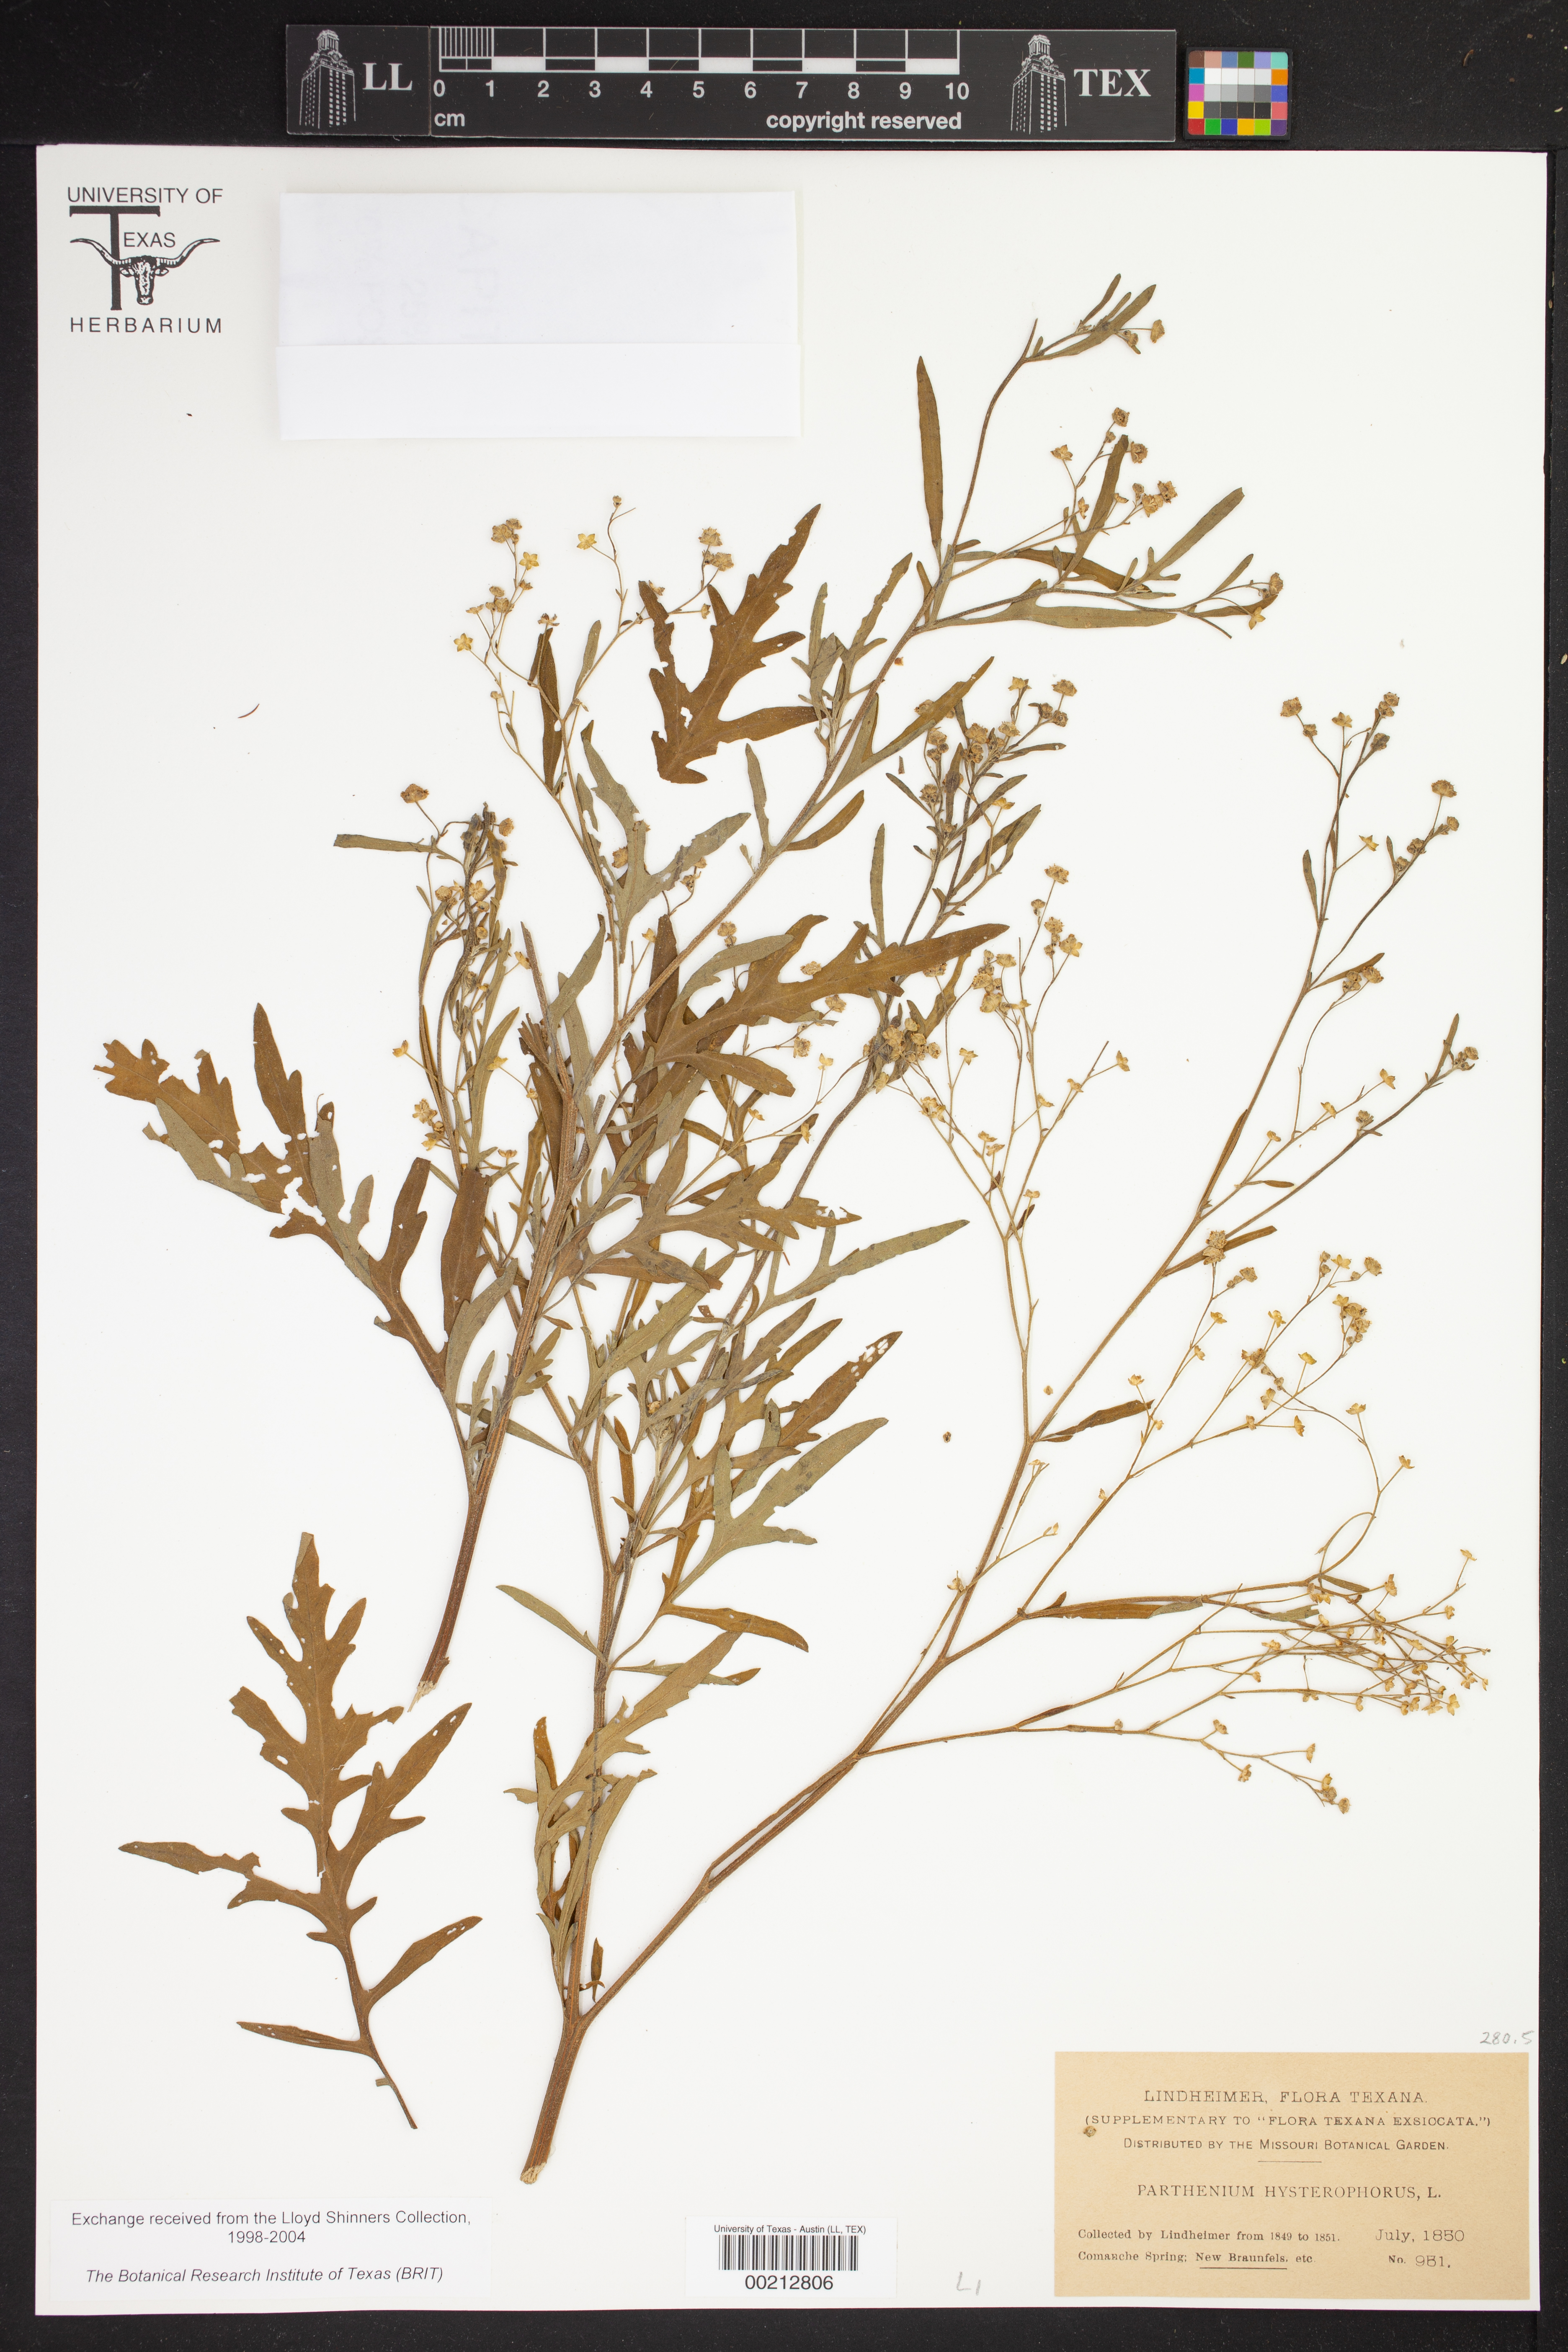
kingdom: Plantae
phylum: Tracheophyta
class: Magnoliopsida
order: Asterales
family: Asteraceae
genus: Parthenium
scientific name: Parthenium hysterophorus
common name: Santa maria feverfew
